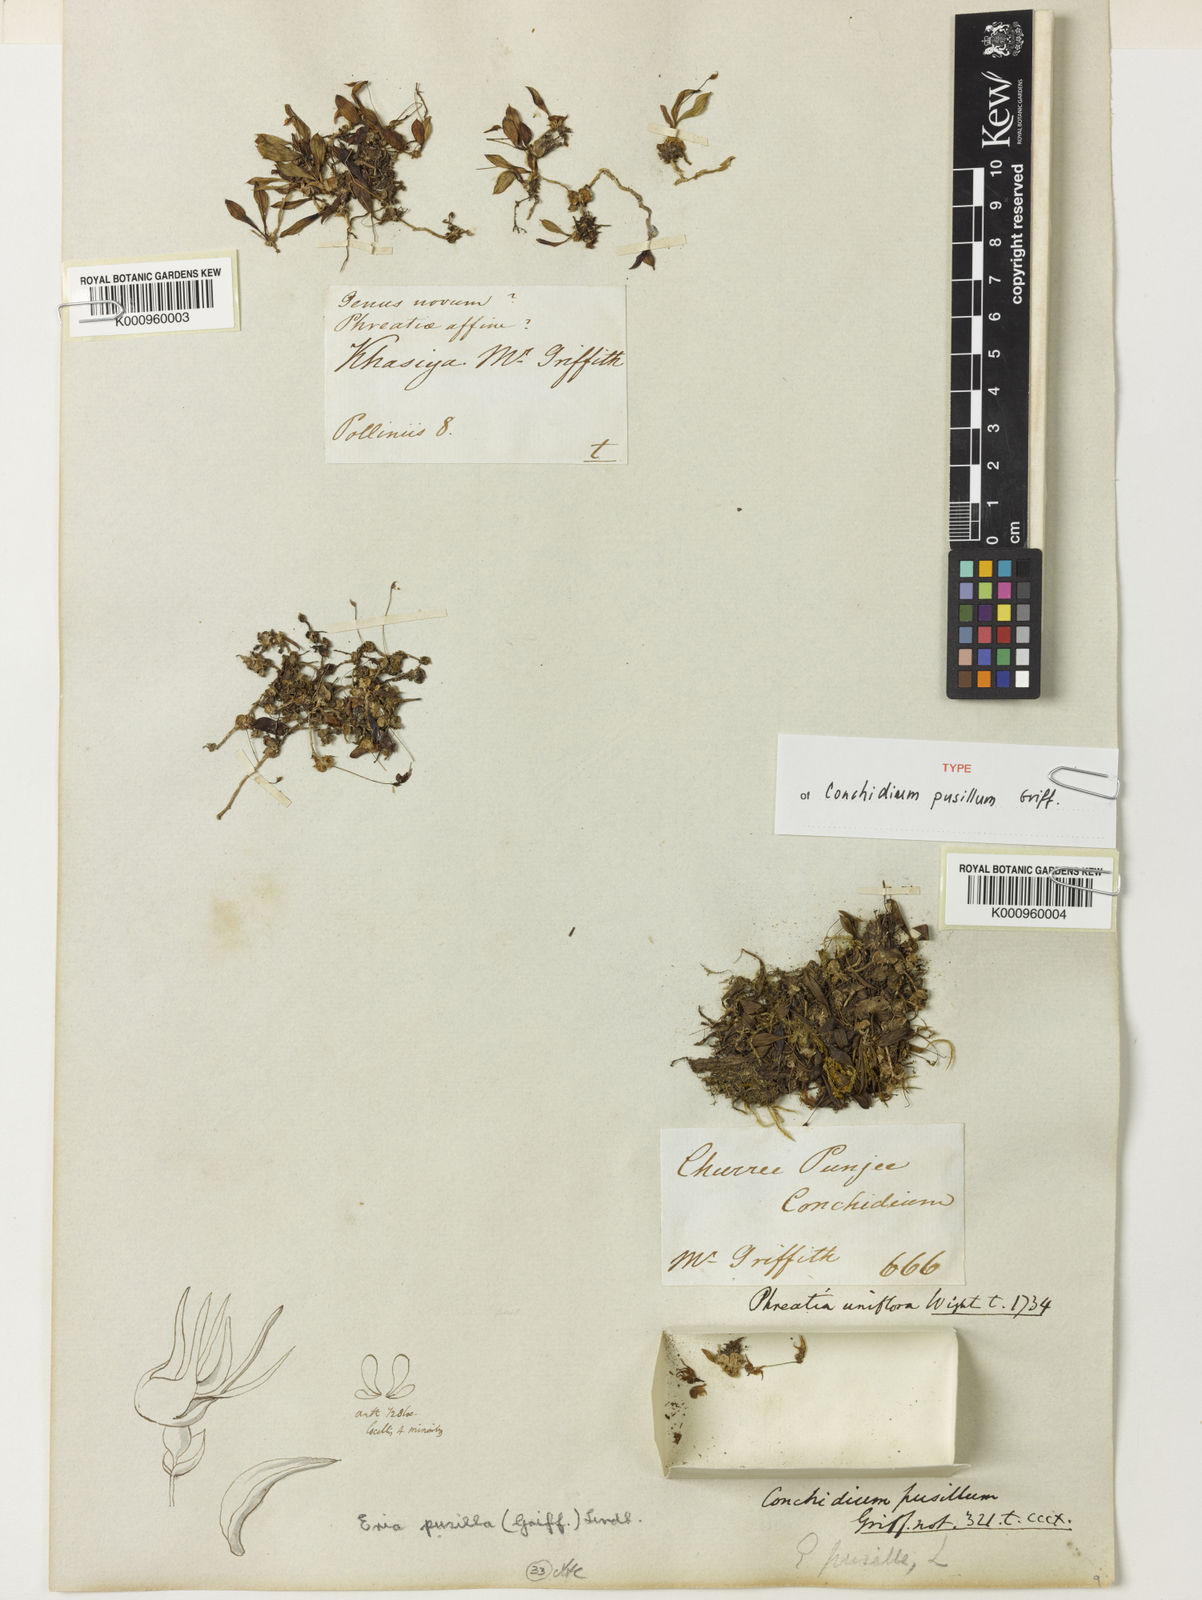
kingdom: Plantae
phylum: Tracheophyta
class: Liliopsida
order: Asparagales
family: Orchidaceae
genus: Porpax
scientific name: Porpax pusilla
